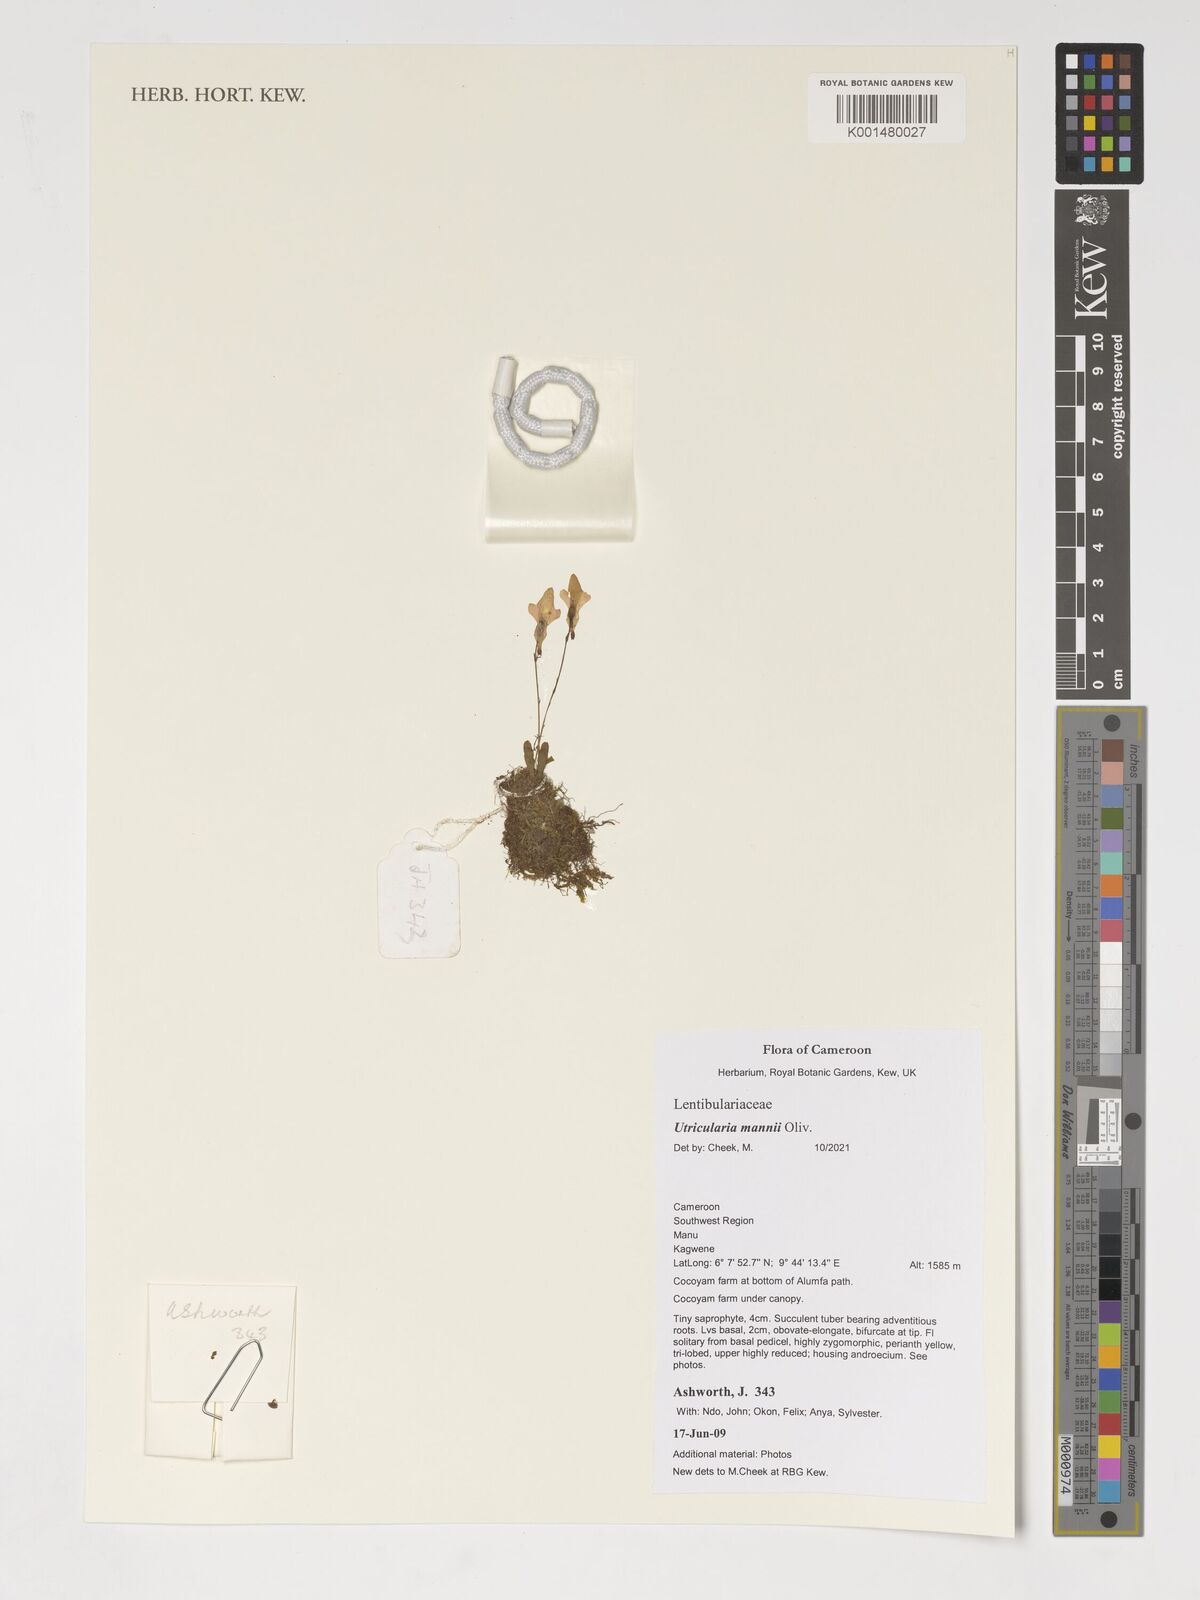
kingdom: Plantae
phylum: Tracheophyta
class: Magnoliopsida
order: Lamiales
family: Lentibulariaceae
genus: Utricularia
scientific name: Utricularia mannii
